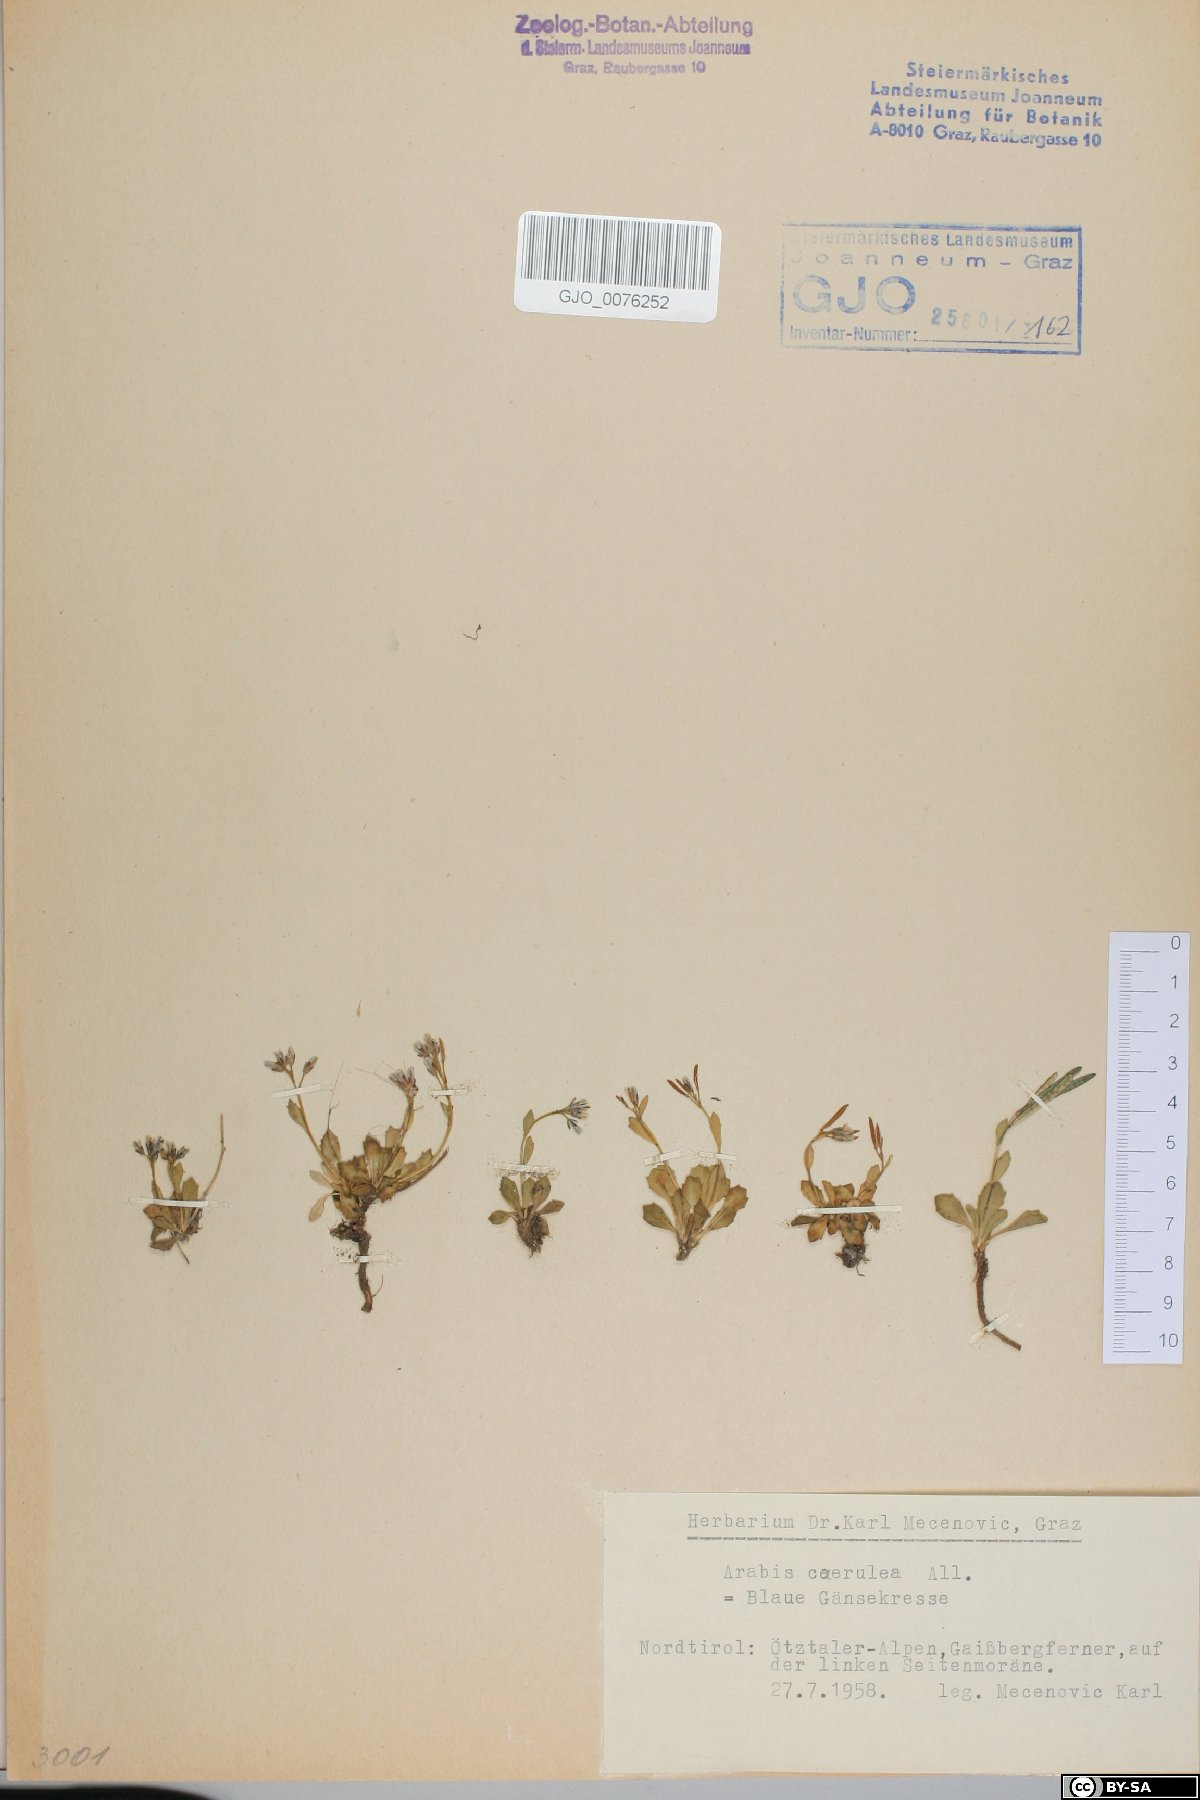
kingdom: Plantae
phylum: Tracheophyta
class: Magnoliopsida
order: Brassicales
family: Brassicaceae
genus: Arabis
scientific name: Arabis caerulea
